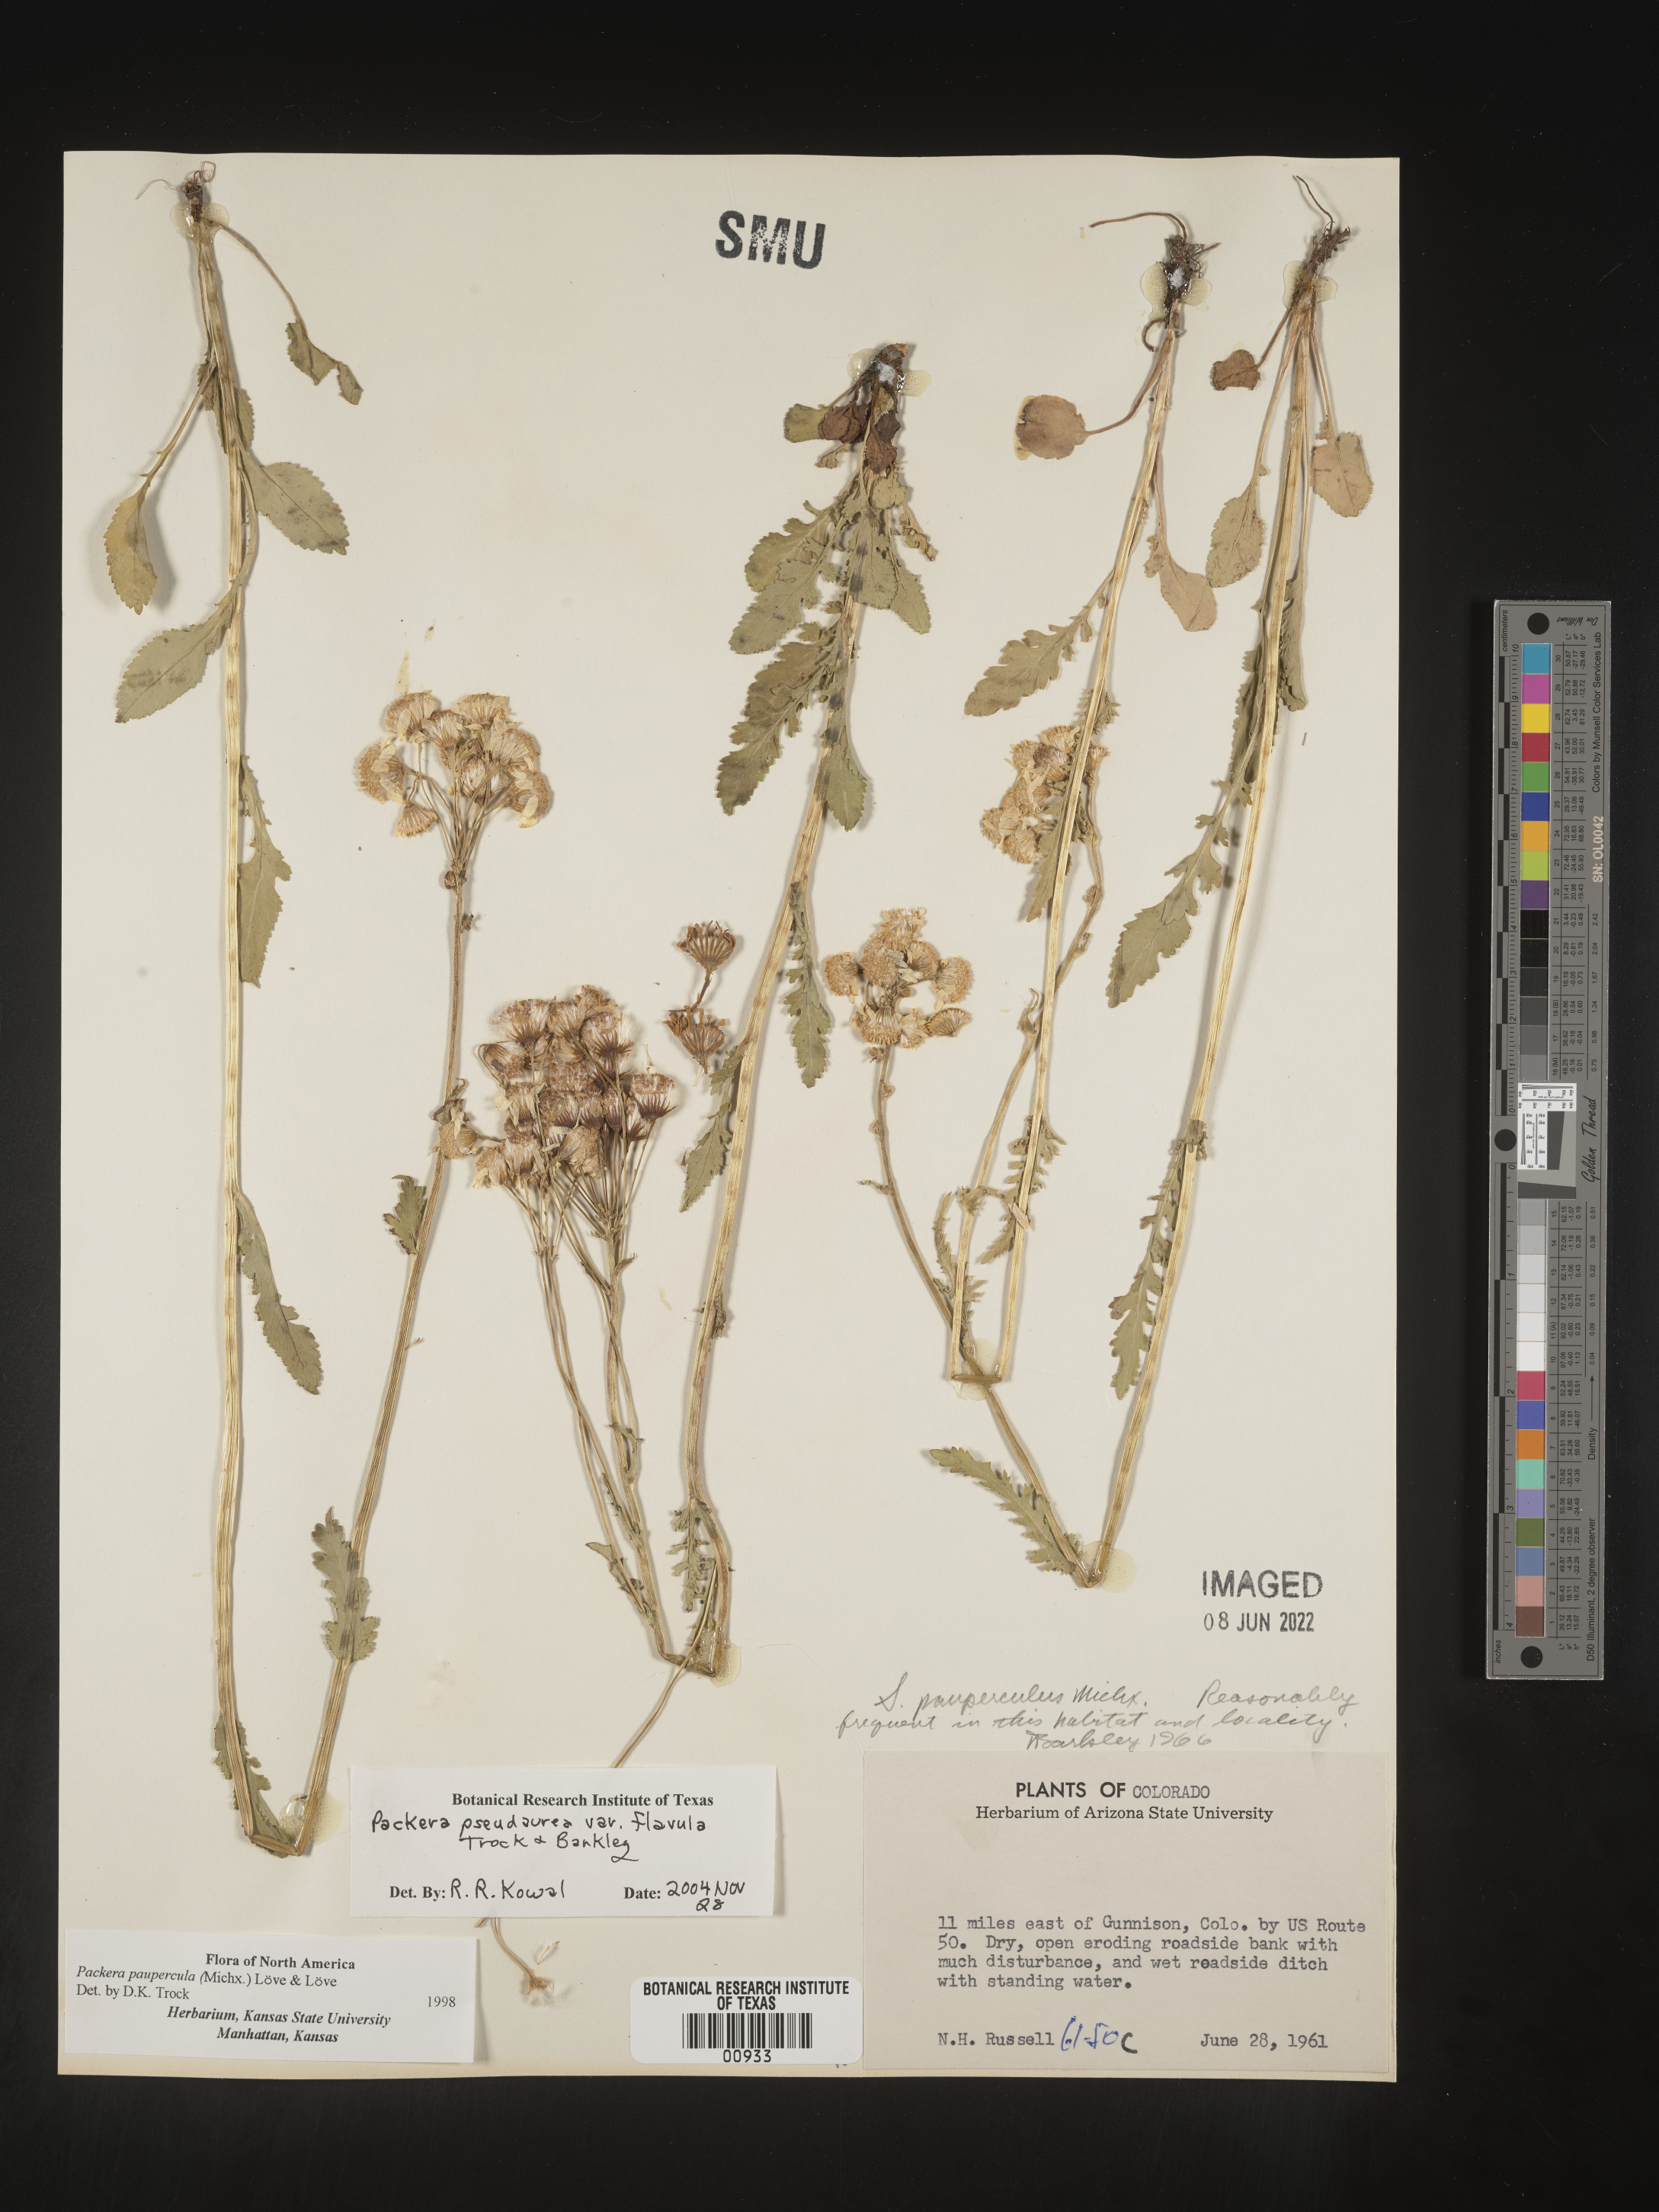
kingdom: Plantae
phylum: Tracheophyta
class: Magnoliopsida
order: Asterales
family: Asteraceae
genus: Packera
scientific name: Packera pseudaurea
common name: False-gold groundsel
